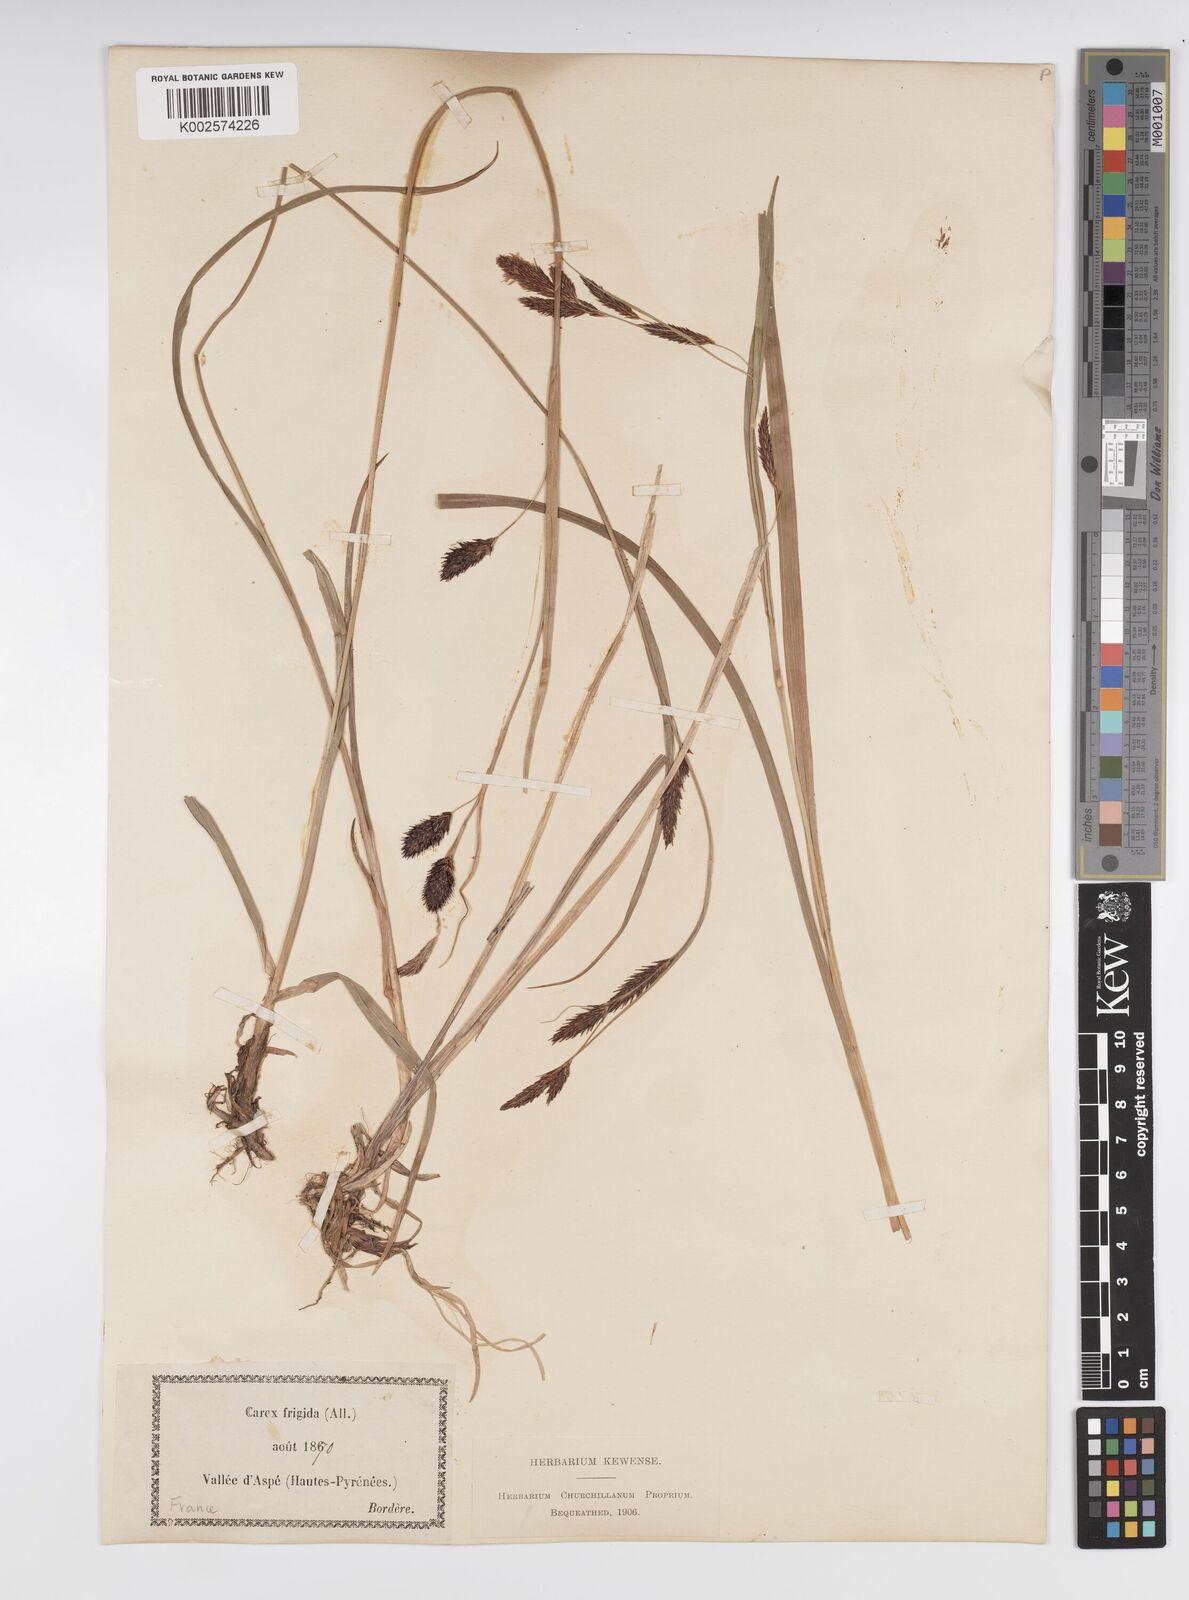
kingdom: Plantae
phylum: Tracheophyta
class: Liliopsida
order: Poales
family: Cyperaceae
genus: Carex
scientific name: Carex frigida
